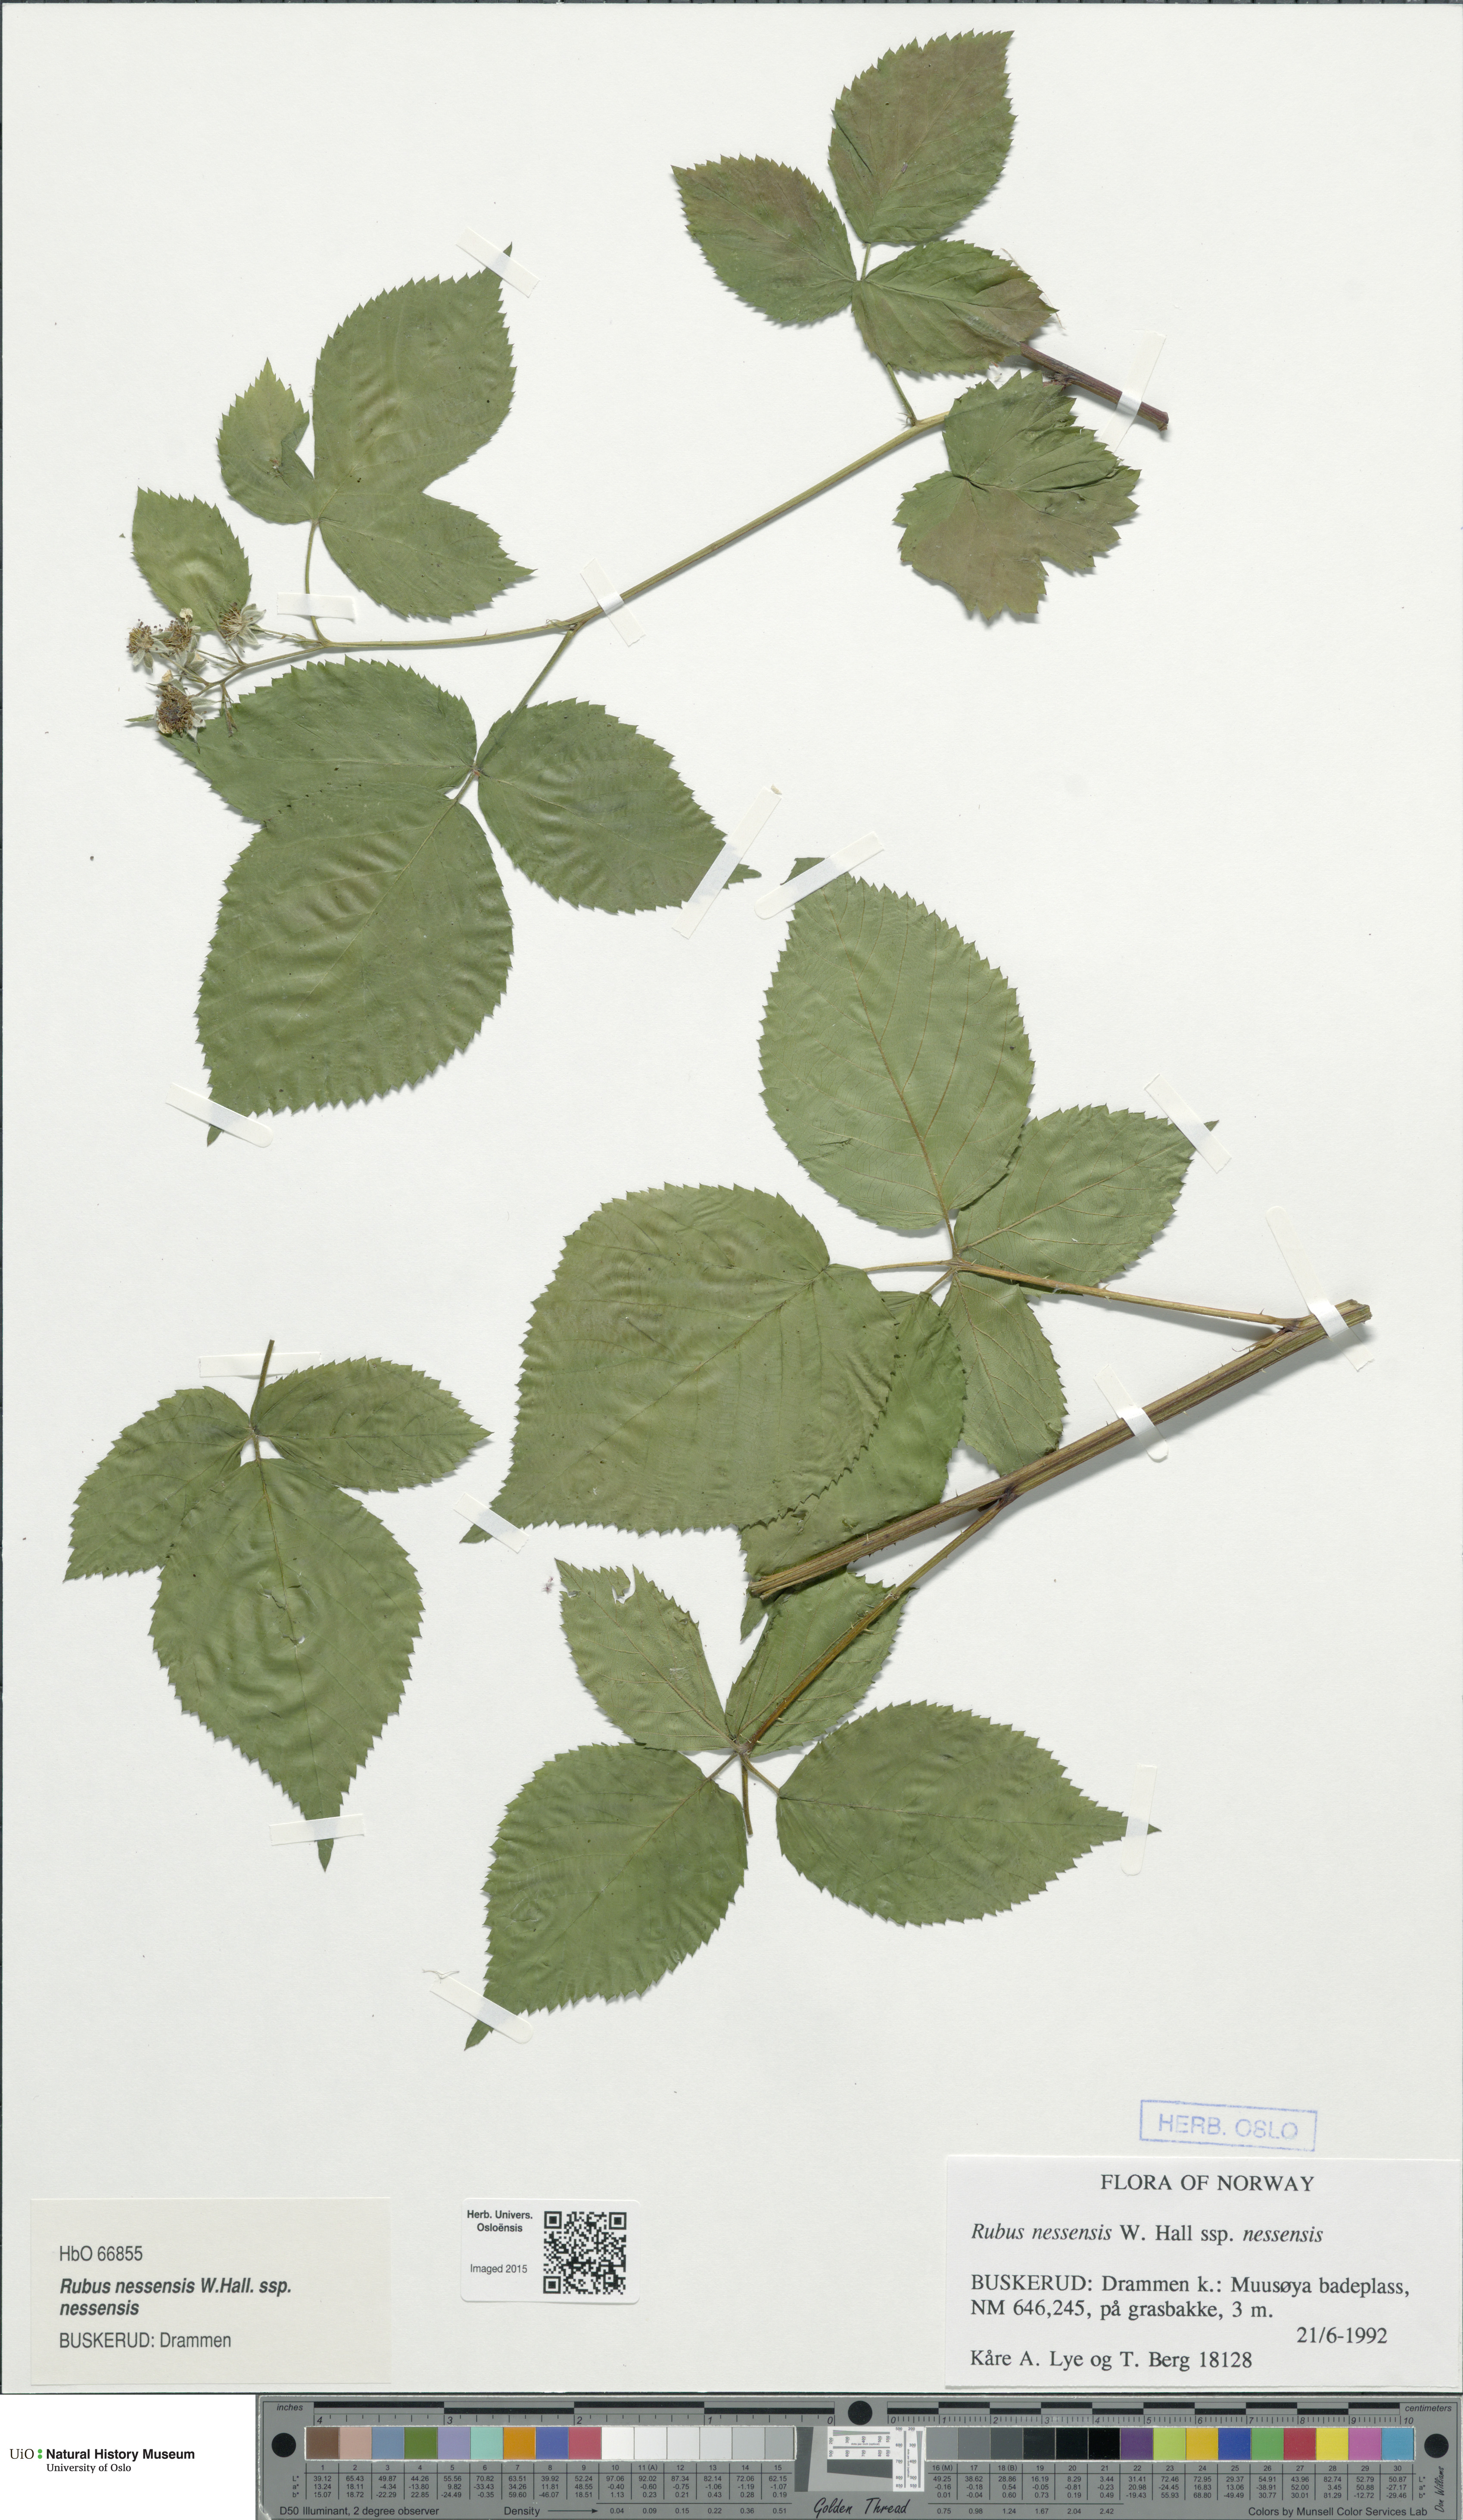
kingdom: Plantae
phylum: Tracheophyta
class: Magnoliopsida
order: Rosales
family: Rosaceae
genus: Rubus
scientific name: Rubus polonicus
